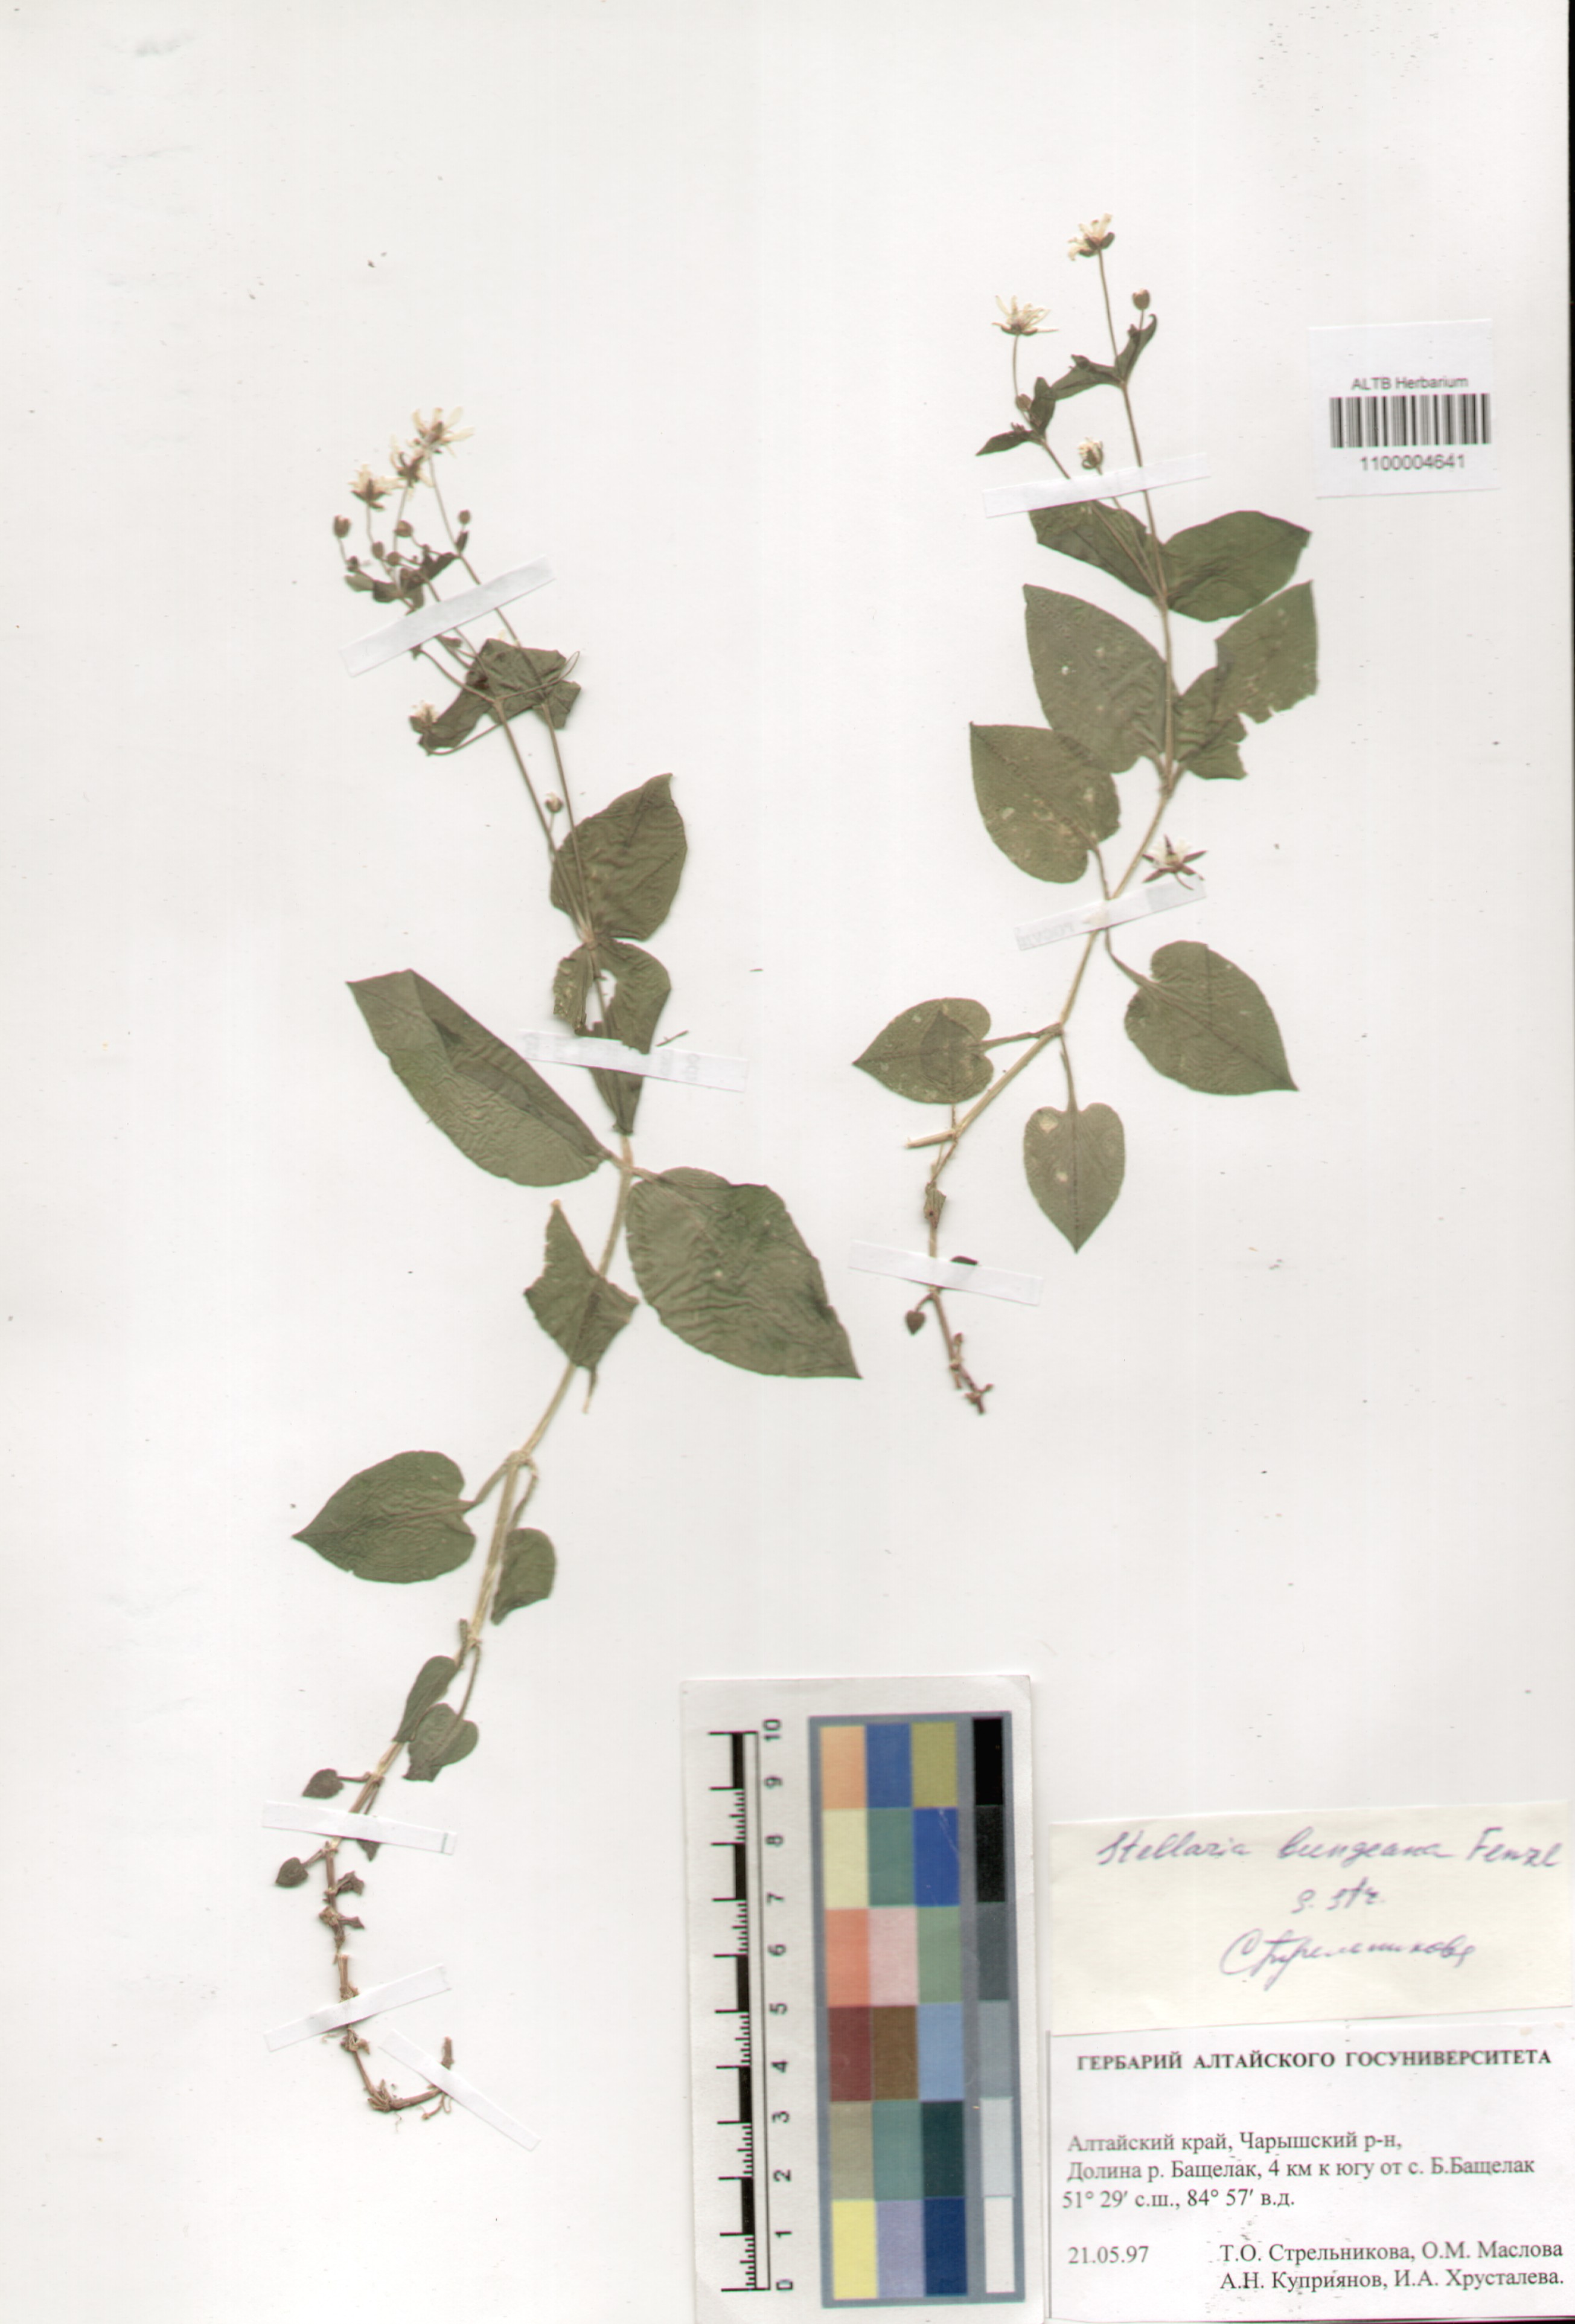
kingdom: Plantae
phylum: Tracheophyta
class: Magnoliopsida
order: Caryophyllales
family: Caryophyllaceae
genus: Stellaria
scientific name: Stellaria bungeana
